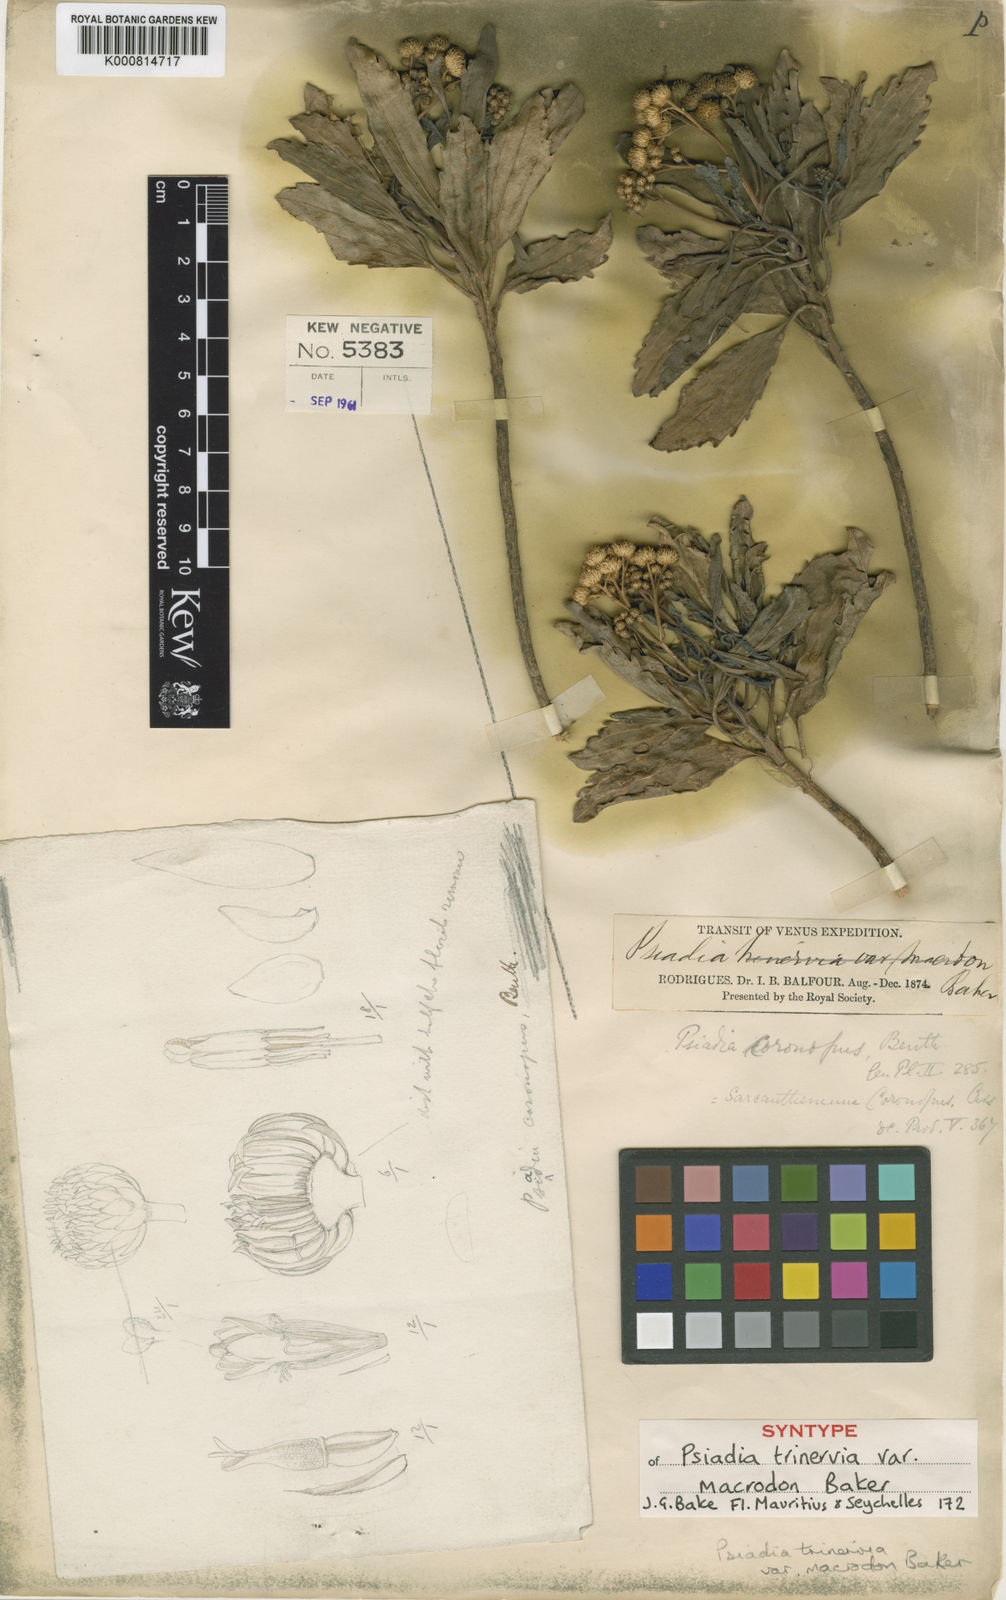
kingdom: Plantae
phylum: Tracheophyta
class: Magnoliopsida
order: Asterales
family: Asteraceae
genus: Sarcanthemum
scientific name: Sarcanthemum coronopus
